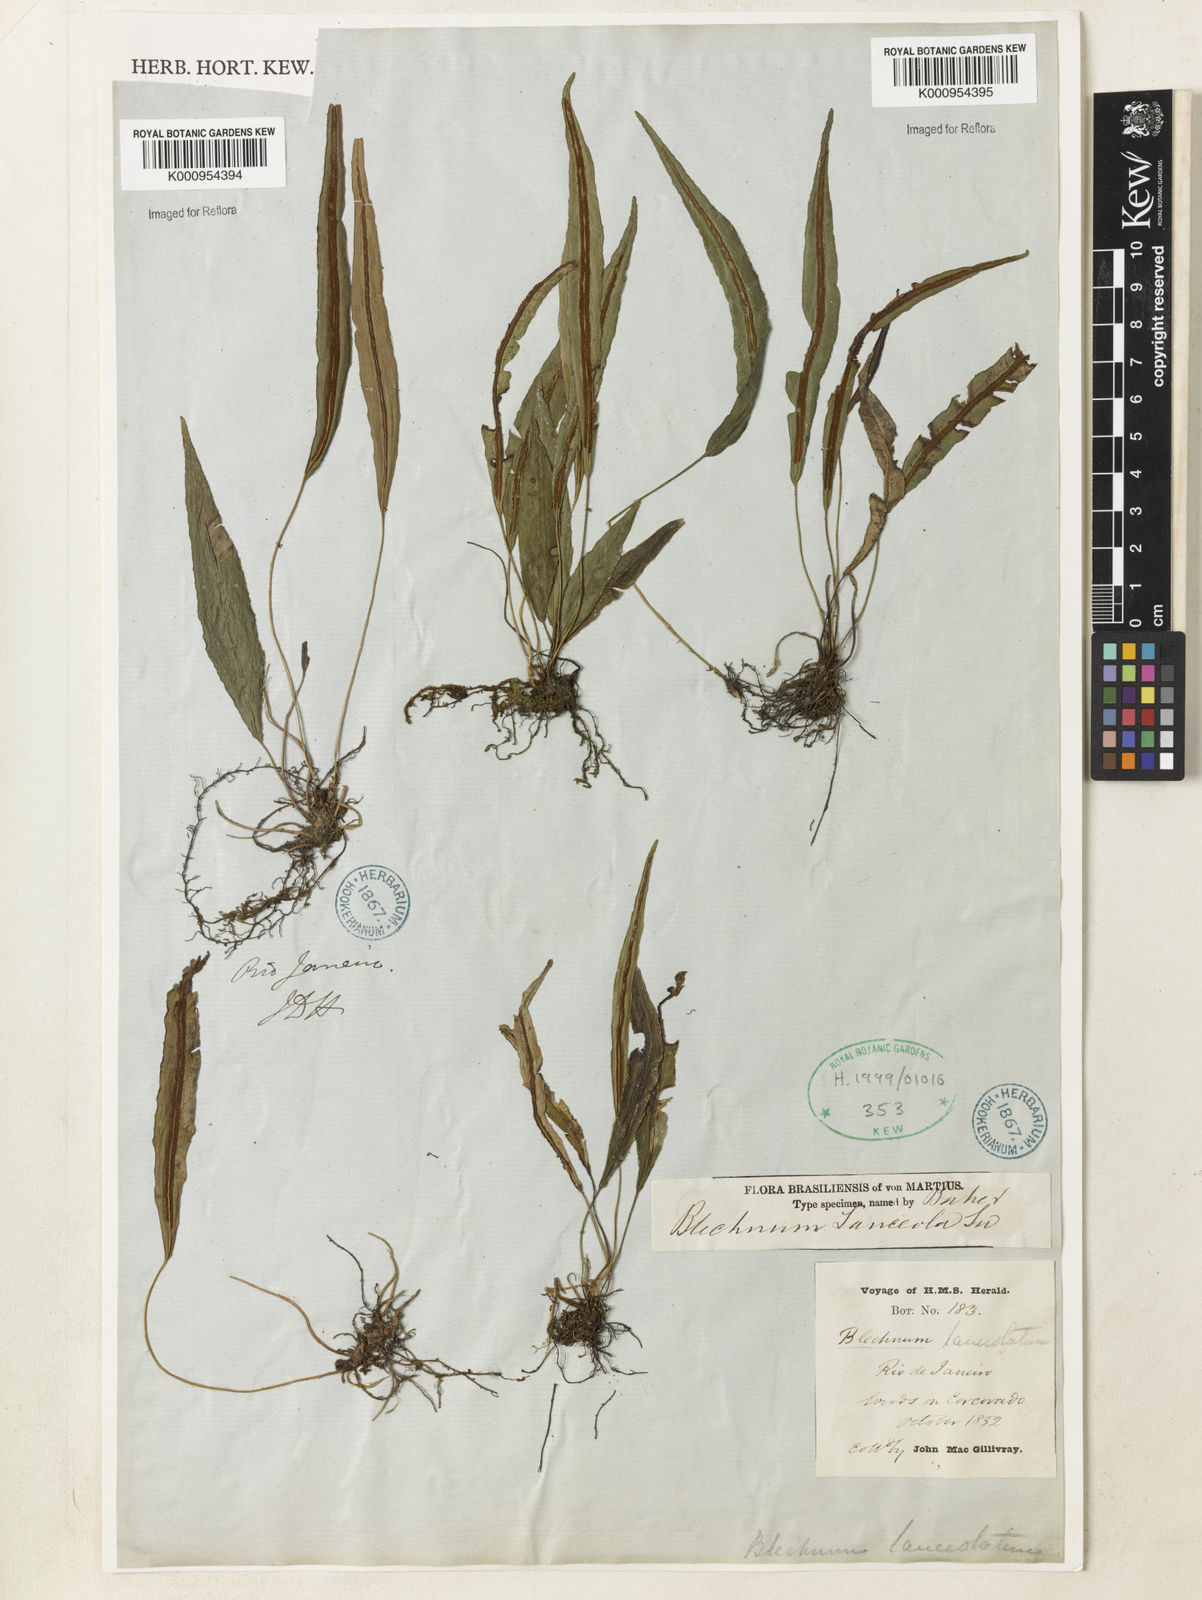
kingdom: Plantae
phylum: Tracheophyta
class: Polypodiopsida
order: Polypodiales
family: Blechnaceae
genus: Blechnum
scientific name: Blechnum lanceola
